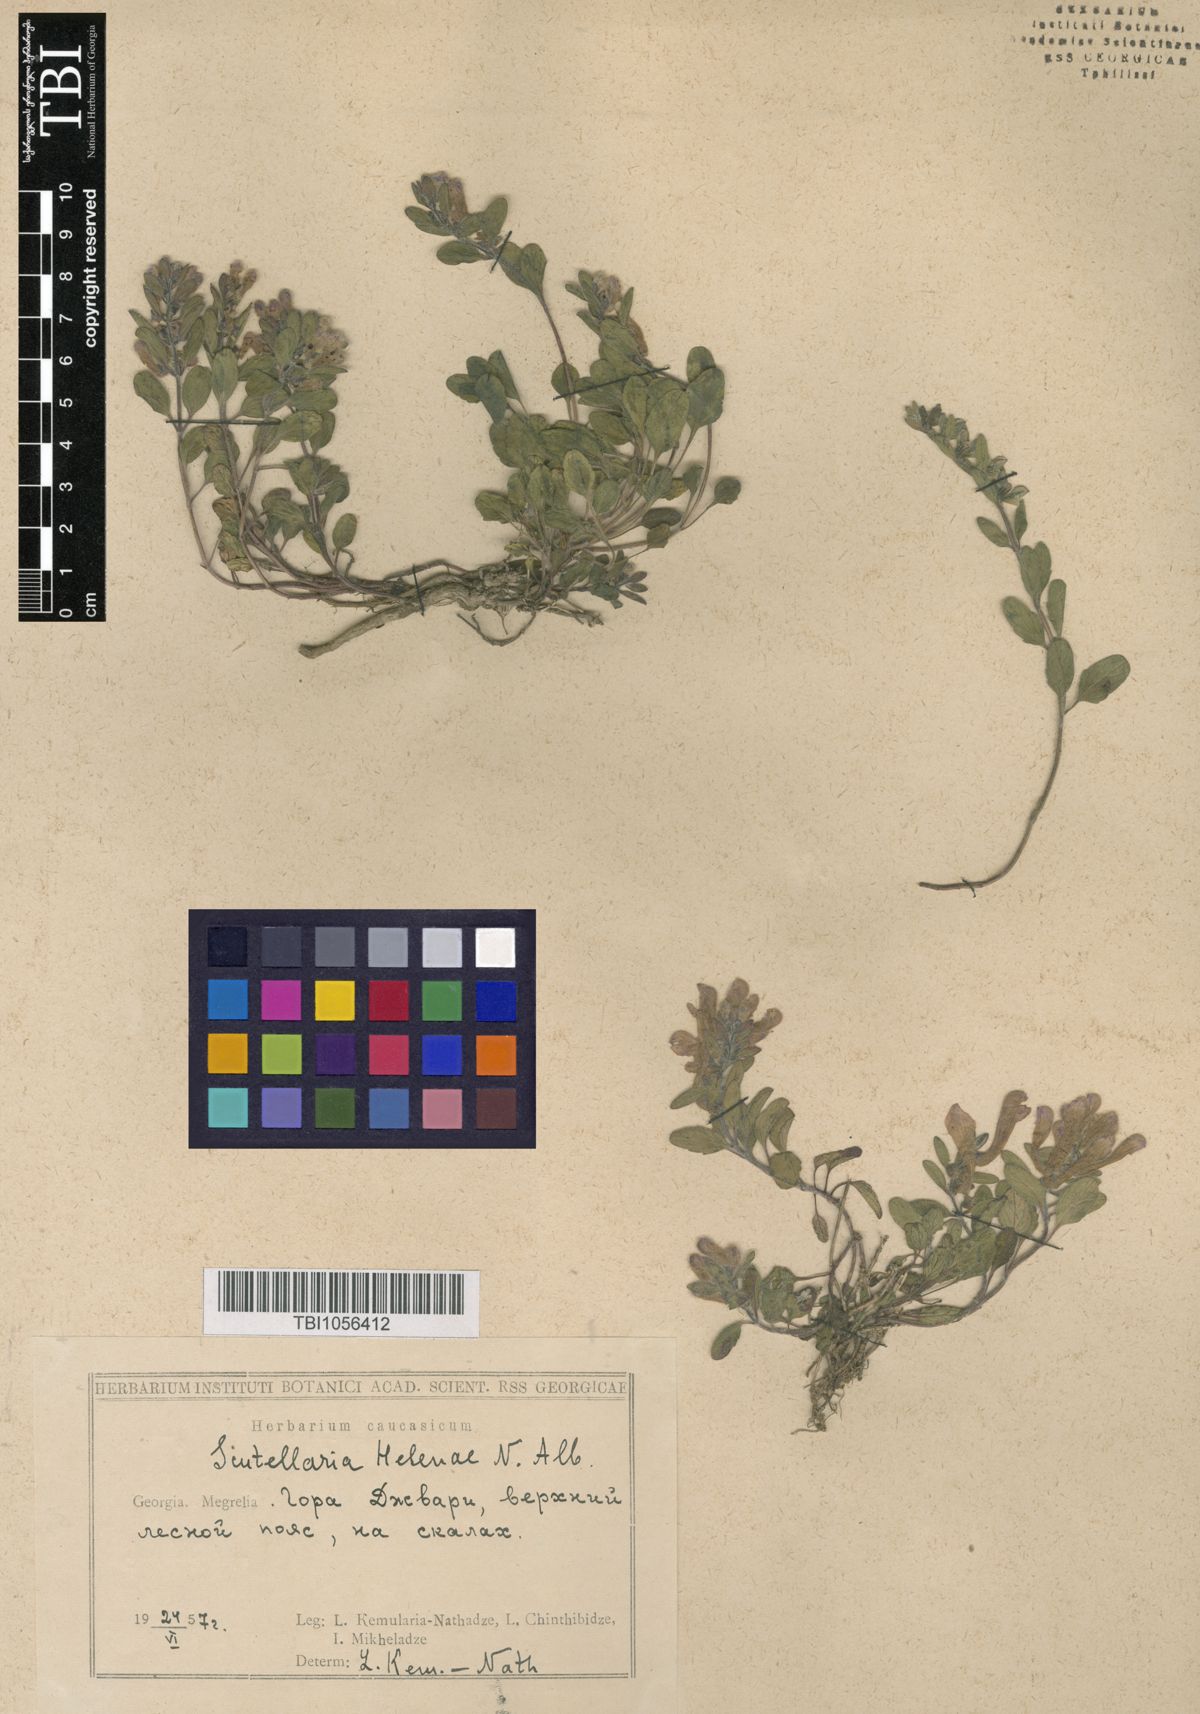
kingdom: Plantae
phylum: Tracheophyta
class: Magnoliopsida
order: Lamiales
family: Lamiaceae
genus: Scutellaria
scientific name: Scutellaria helenae
